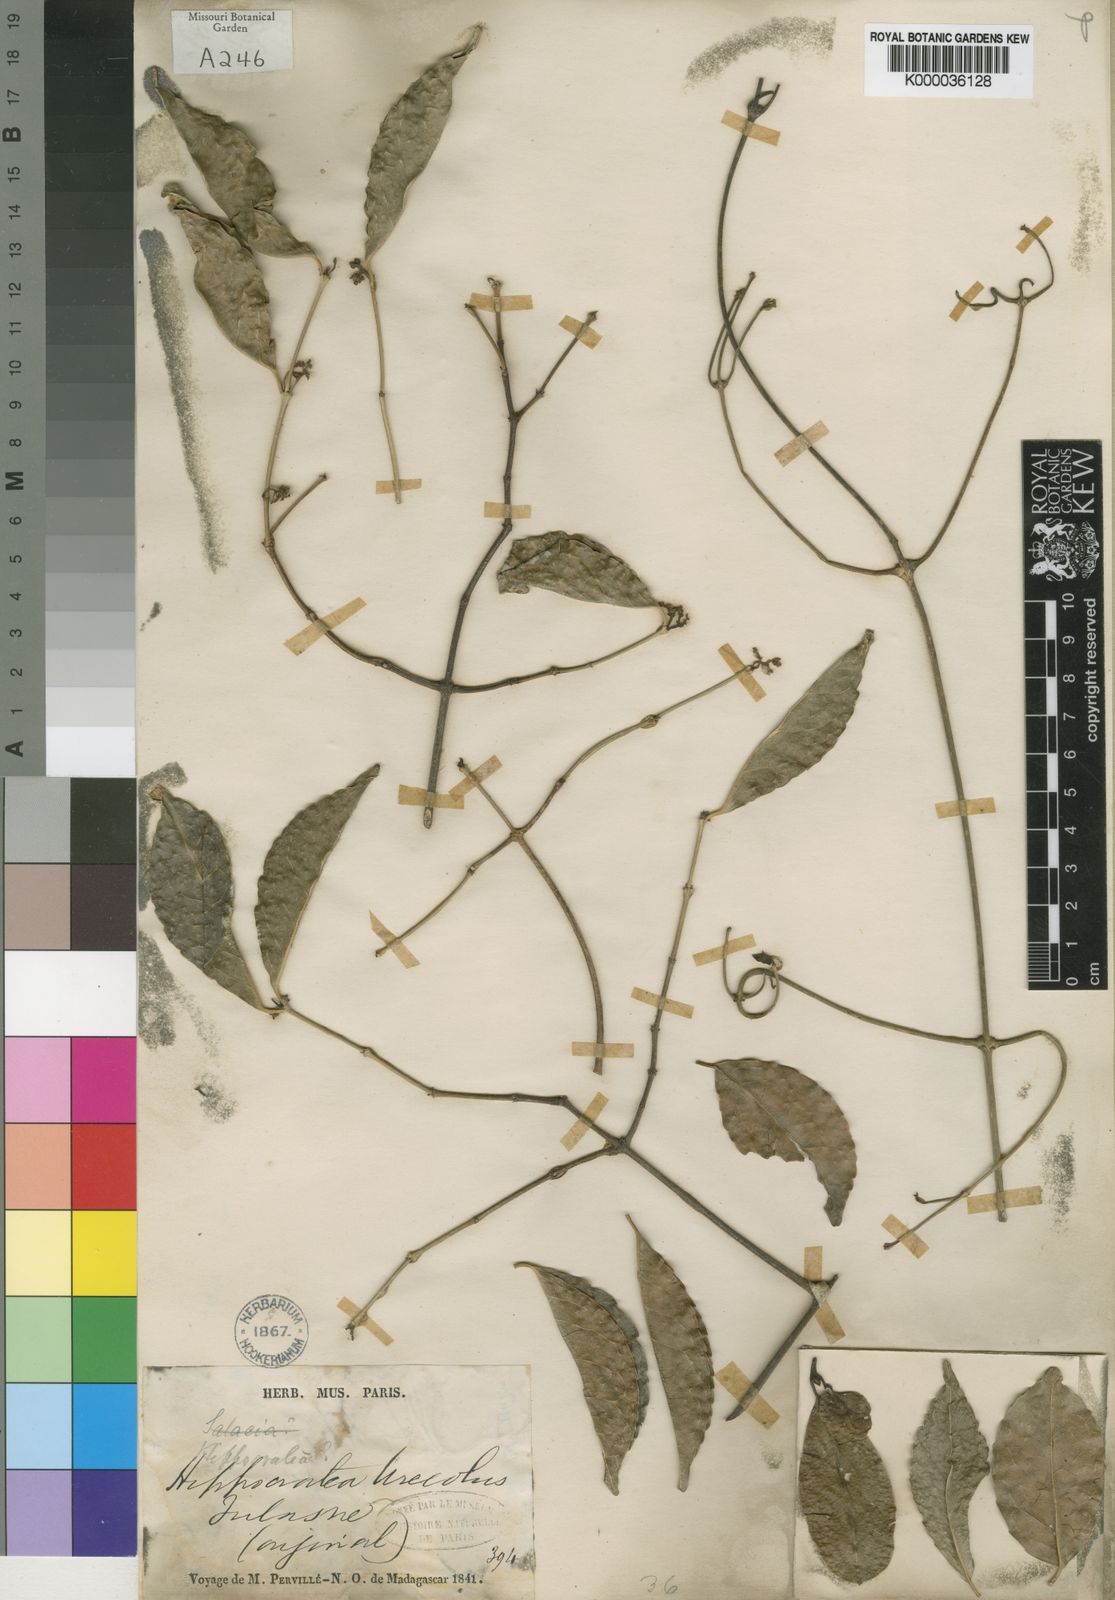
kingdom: Plantae
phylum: Tracheophyta
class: Magnoliopsida
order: Celastrales
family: Celastraceae
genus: Loeseneriella
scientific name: Loeseneriella urceolus
